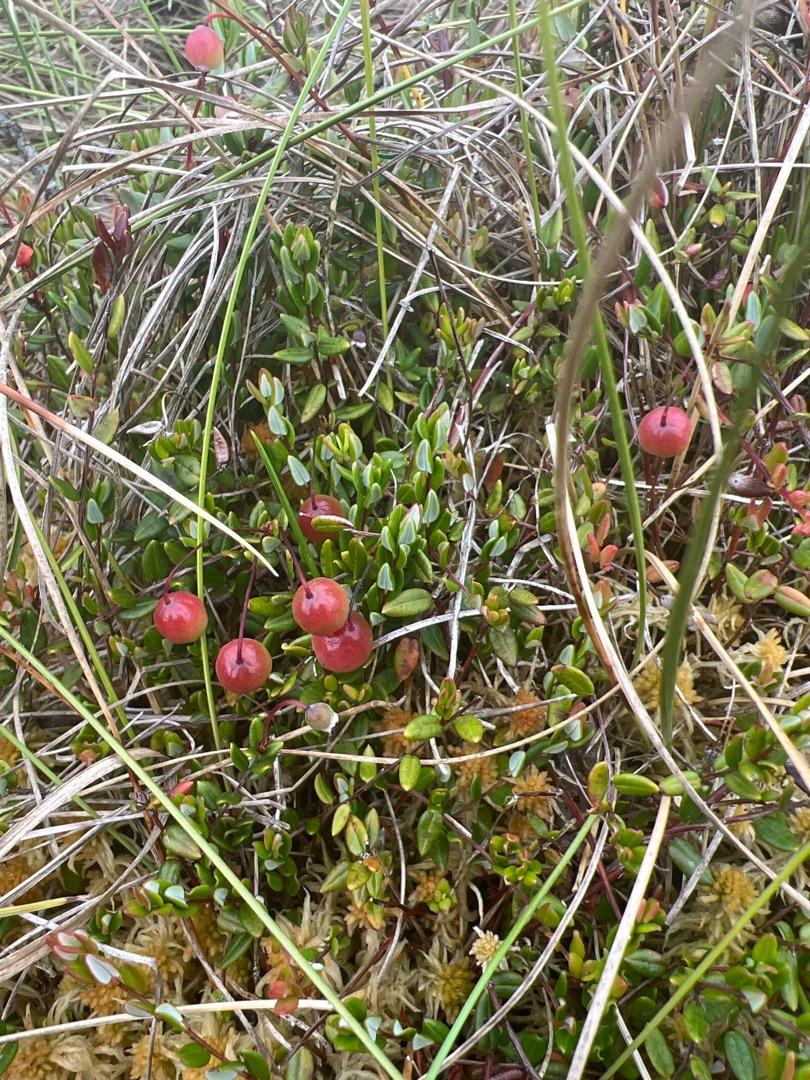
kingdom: Plantae
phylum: Tracheophyta
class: Magnoliopsida
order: Ericales
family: Ericaceae
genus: Vaccinium
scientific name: Vaccinium oxycoccos
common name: Tranebær
